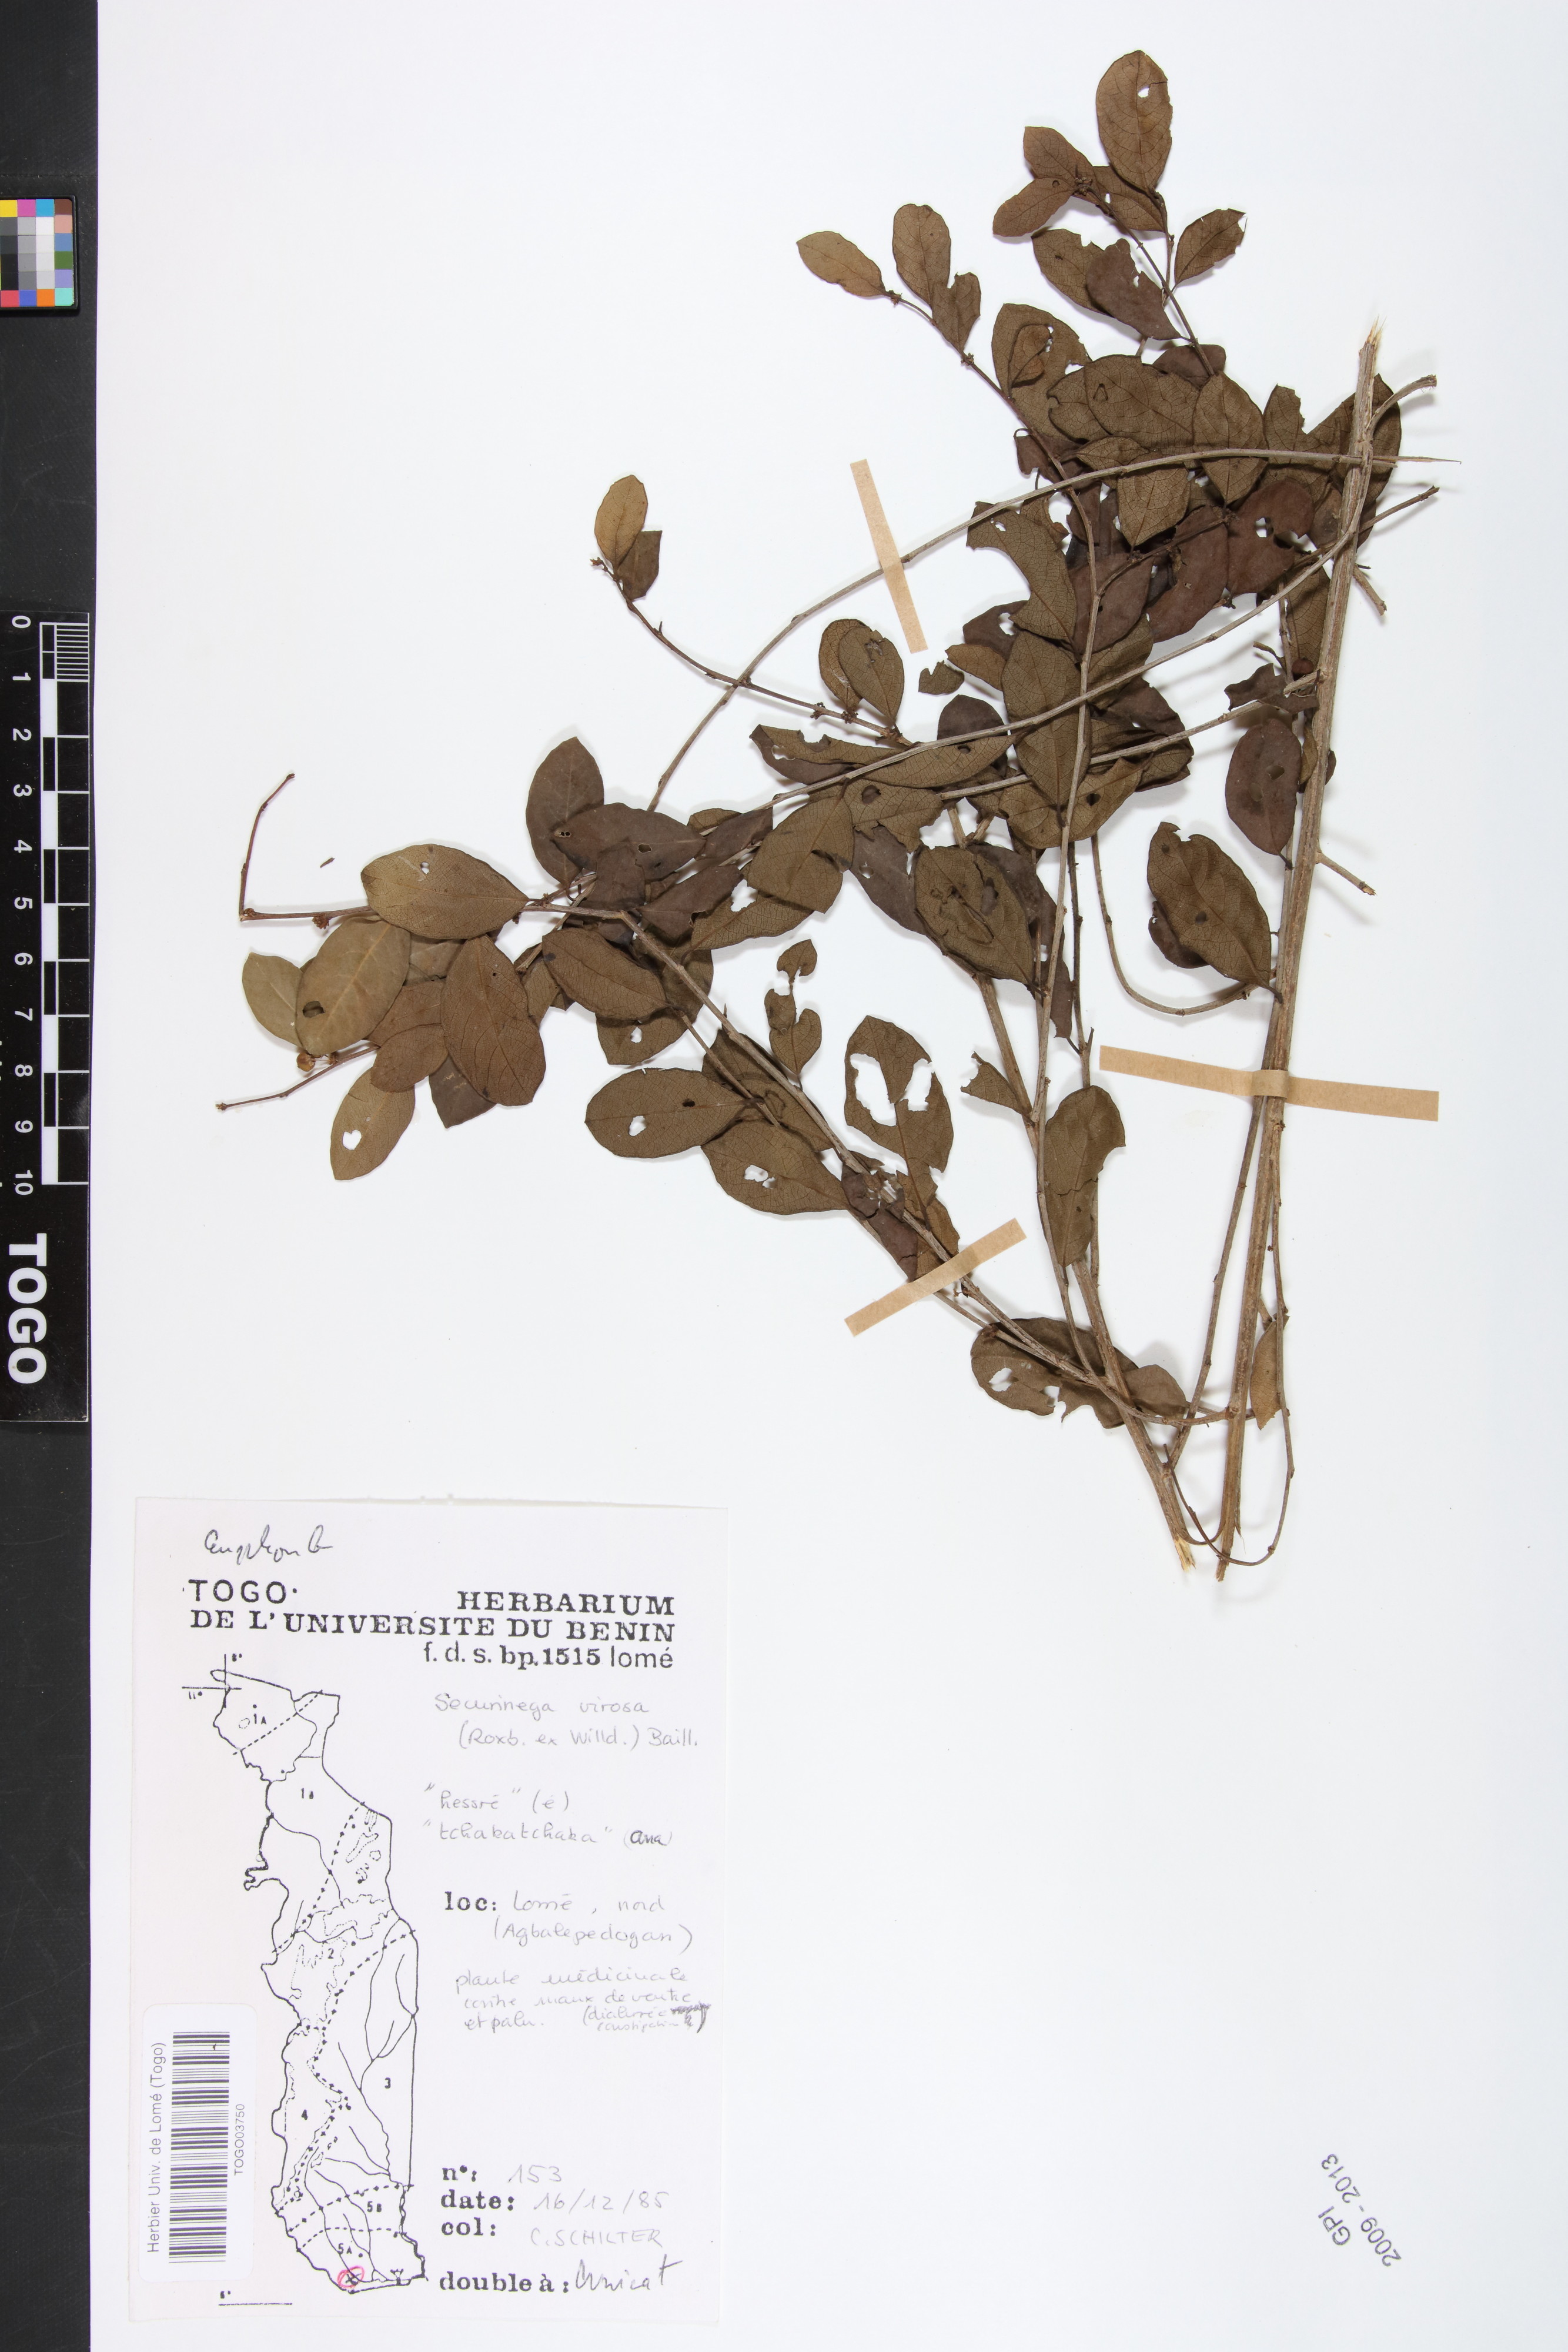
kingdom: Plantae
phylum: Tracheophyta
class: Magnoliopsida
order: Malpighiales
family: Phyllanthaceae
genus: Flueggea
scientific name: Flueggea virosa
